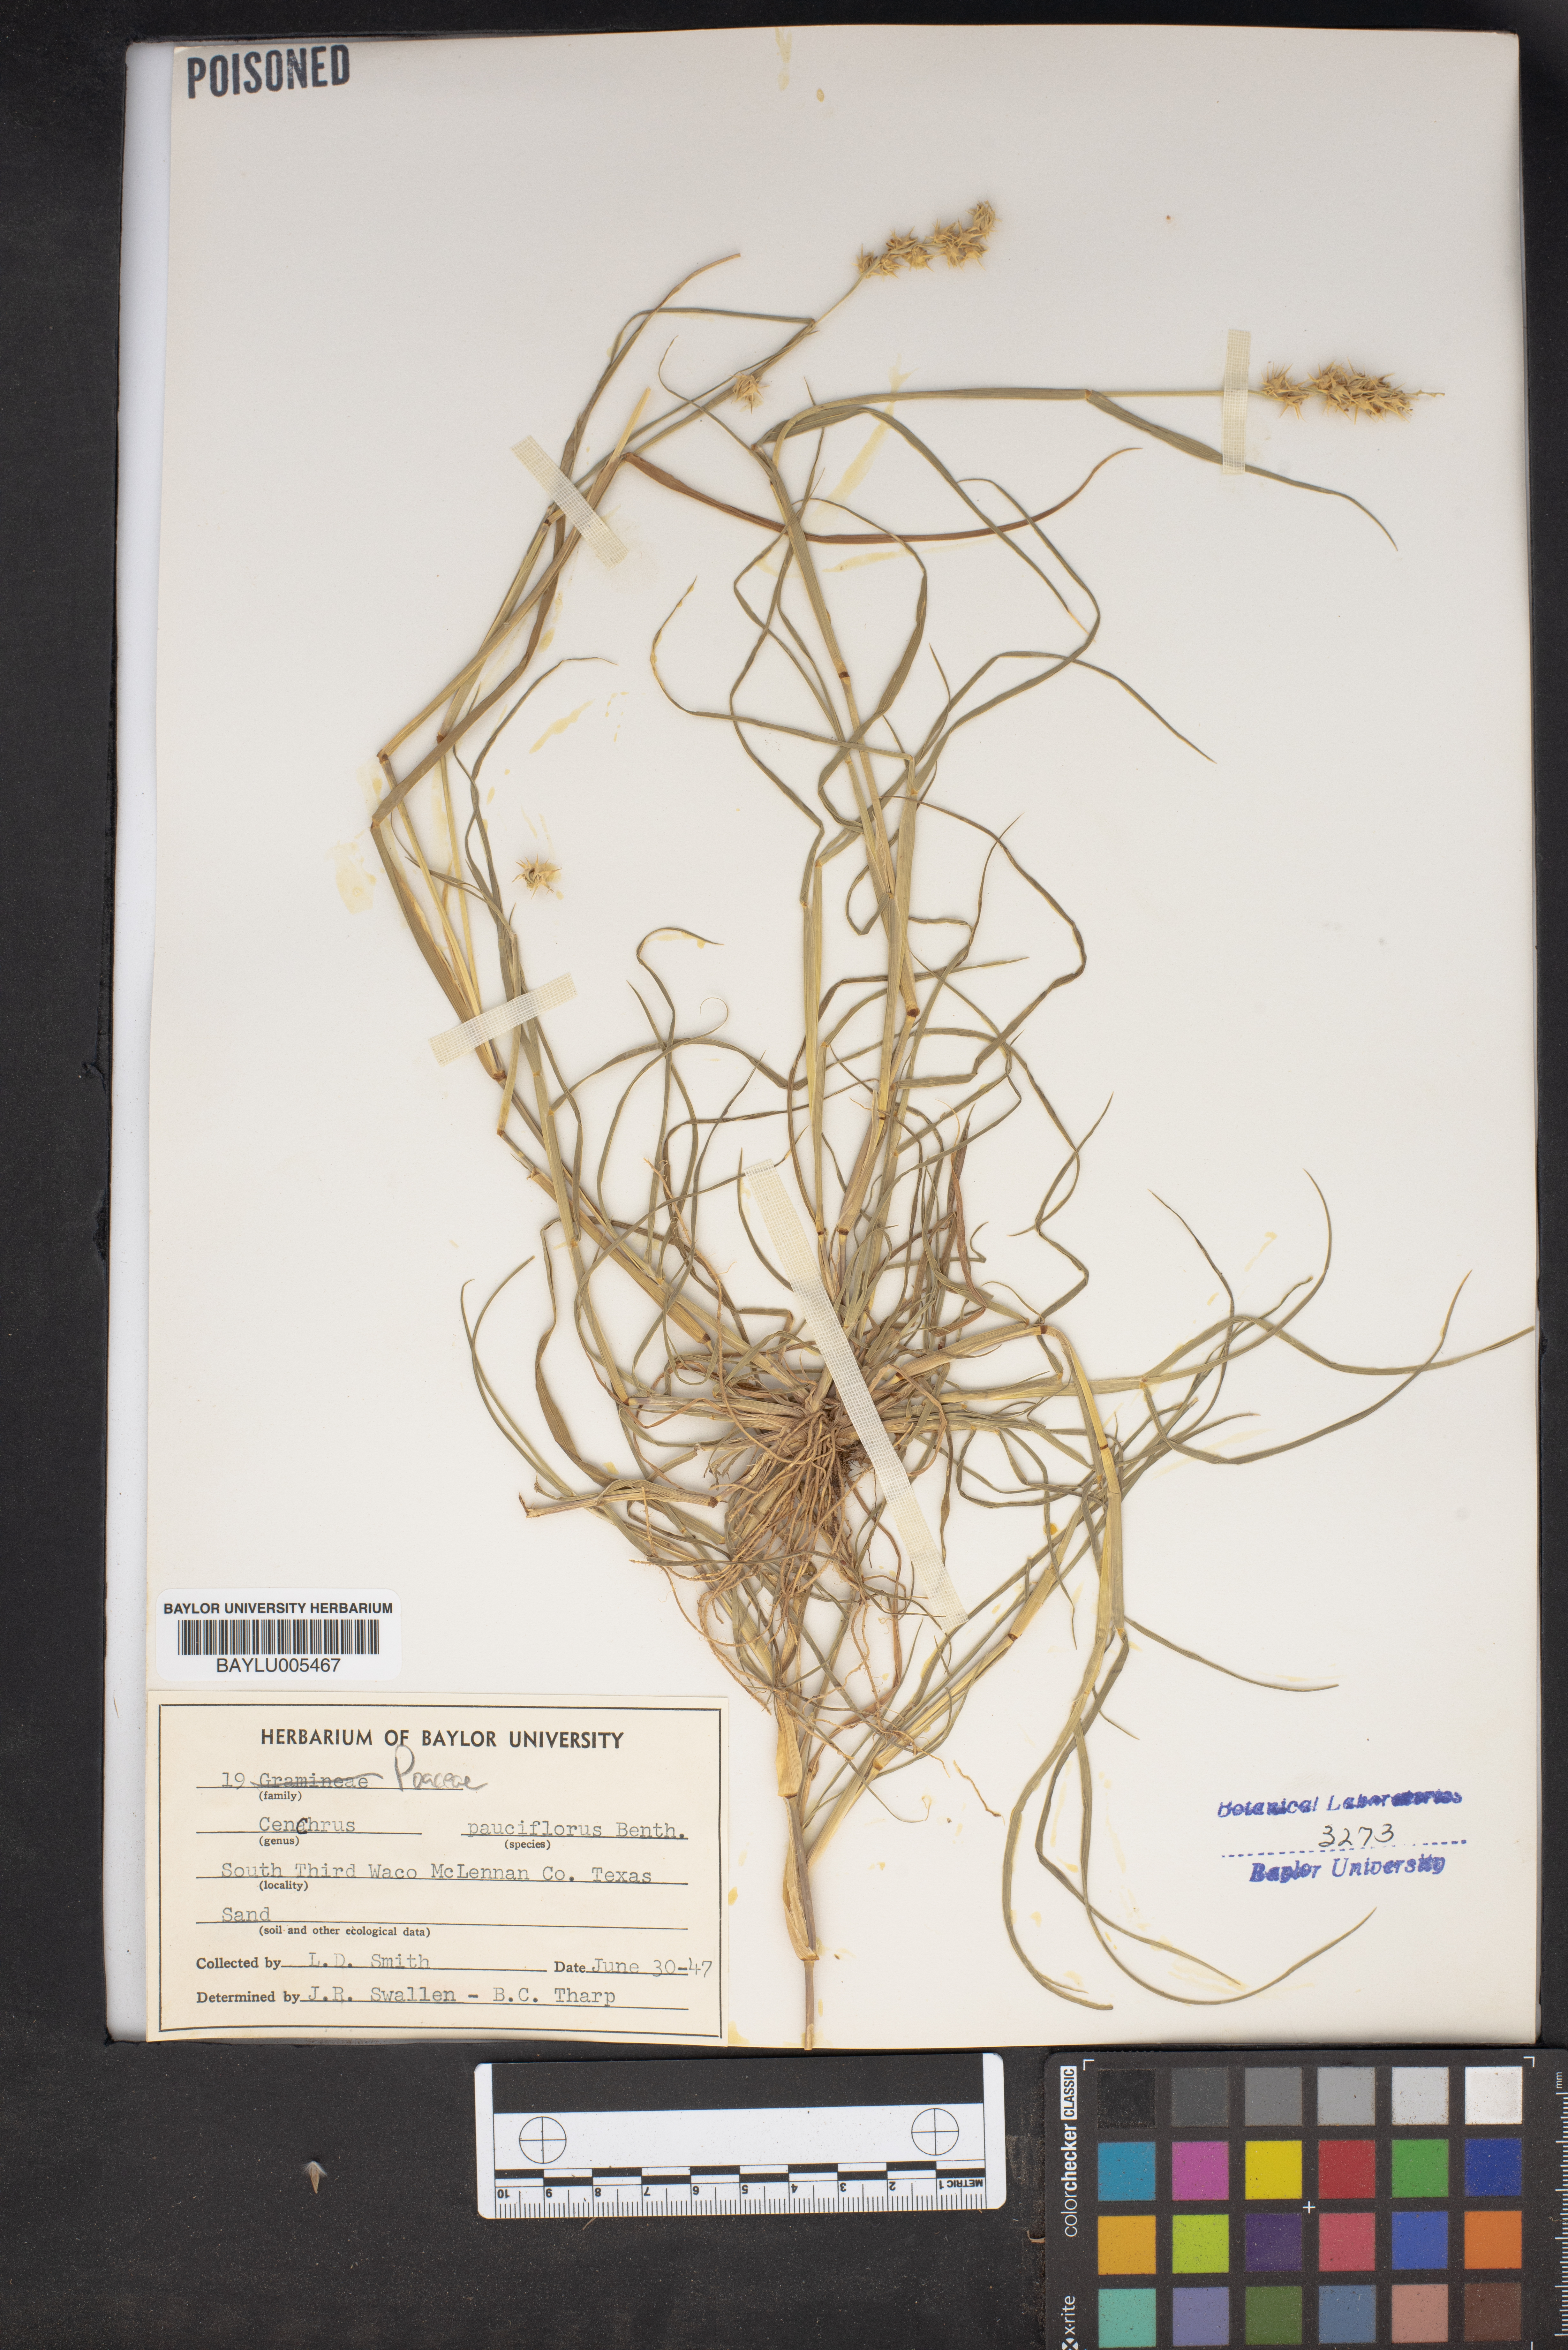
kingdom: Plantae
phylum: Tracheophyta
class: Liliopsida
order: Poales
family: Poaceae
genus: Cenchrus
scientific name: Cenchrus spinifex
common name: Coast sandbur
